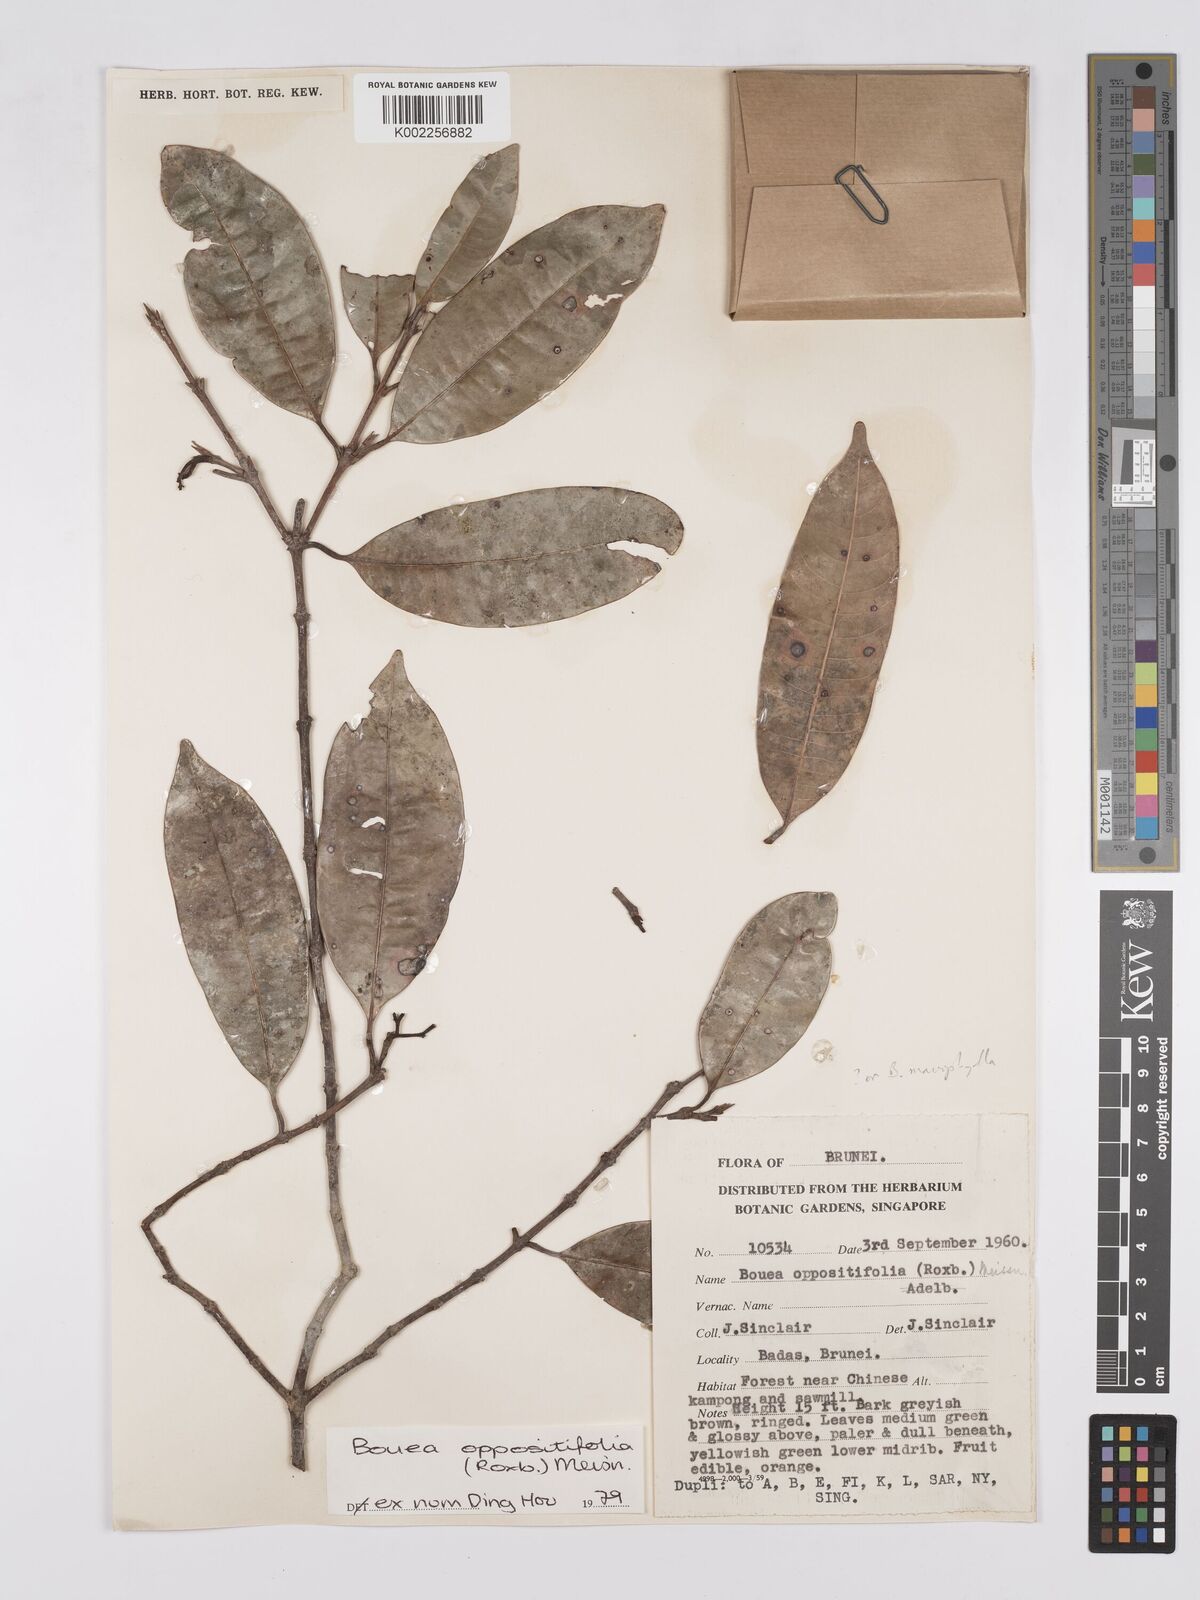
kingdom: Plantae
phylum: Tracheophyta
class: Magnoliopsida
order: Sapindales
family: Anacardiaceae
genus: Bouea
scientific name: Bouea oppositifolia
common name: Narrow-leaved kundang
